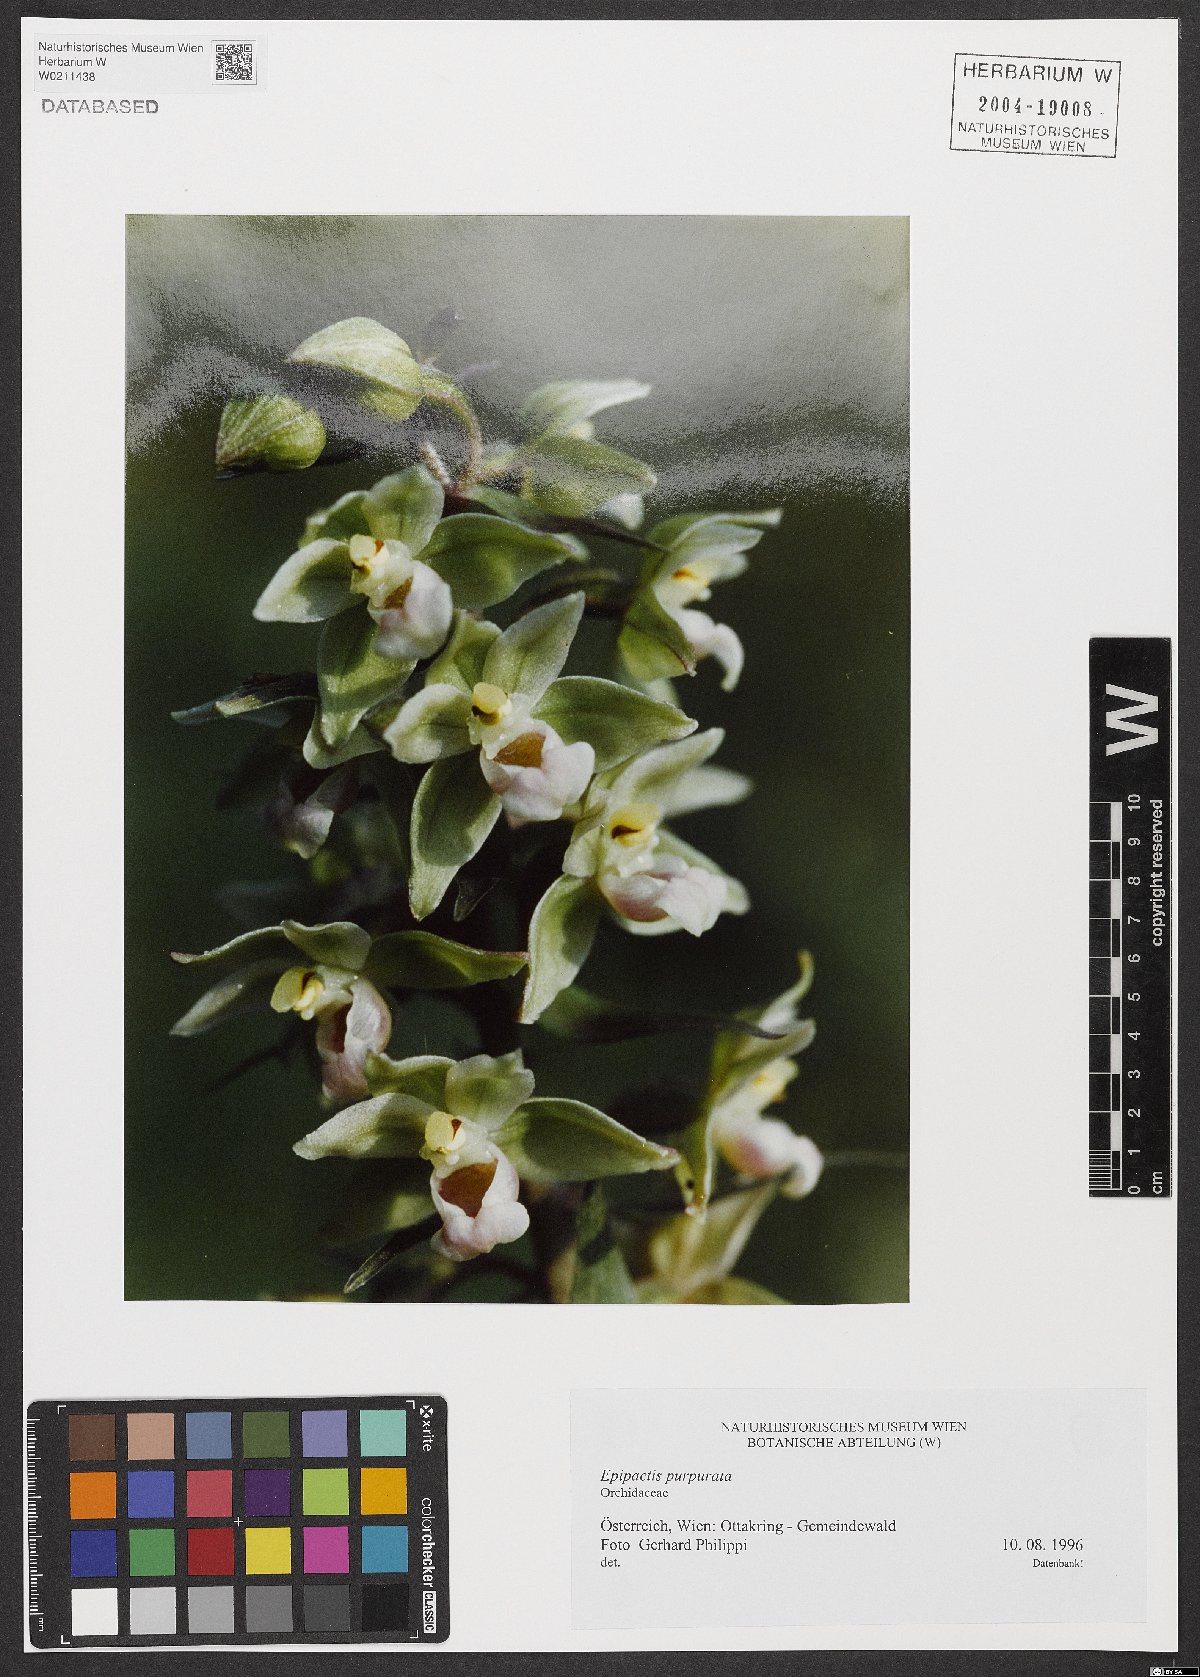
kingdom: Plantae
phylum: Tracheophyta
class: Liliopsida
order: Asparagales
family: Orchidaceae
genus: Epipactis
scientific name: Epipactis purpurata
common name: Violet helleborine
